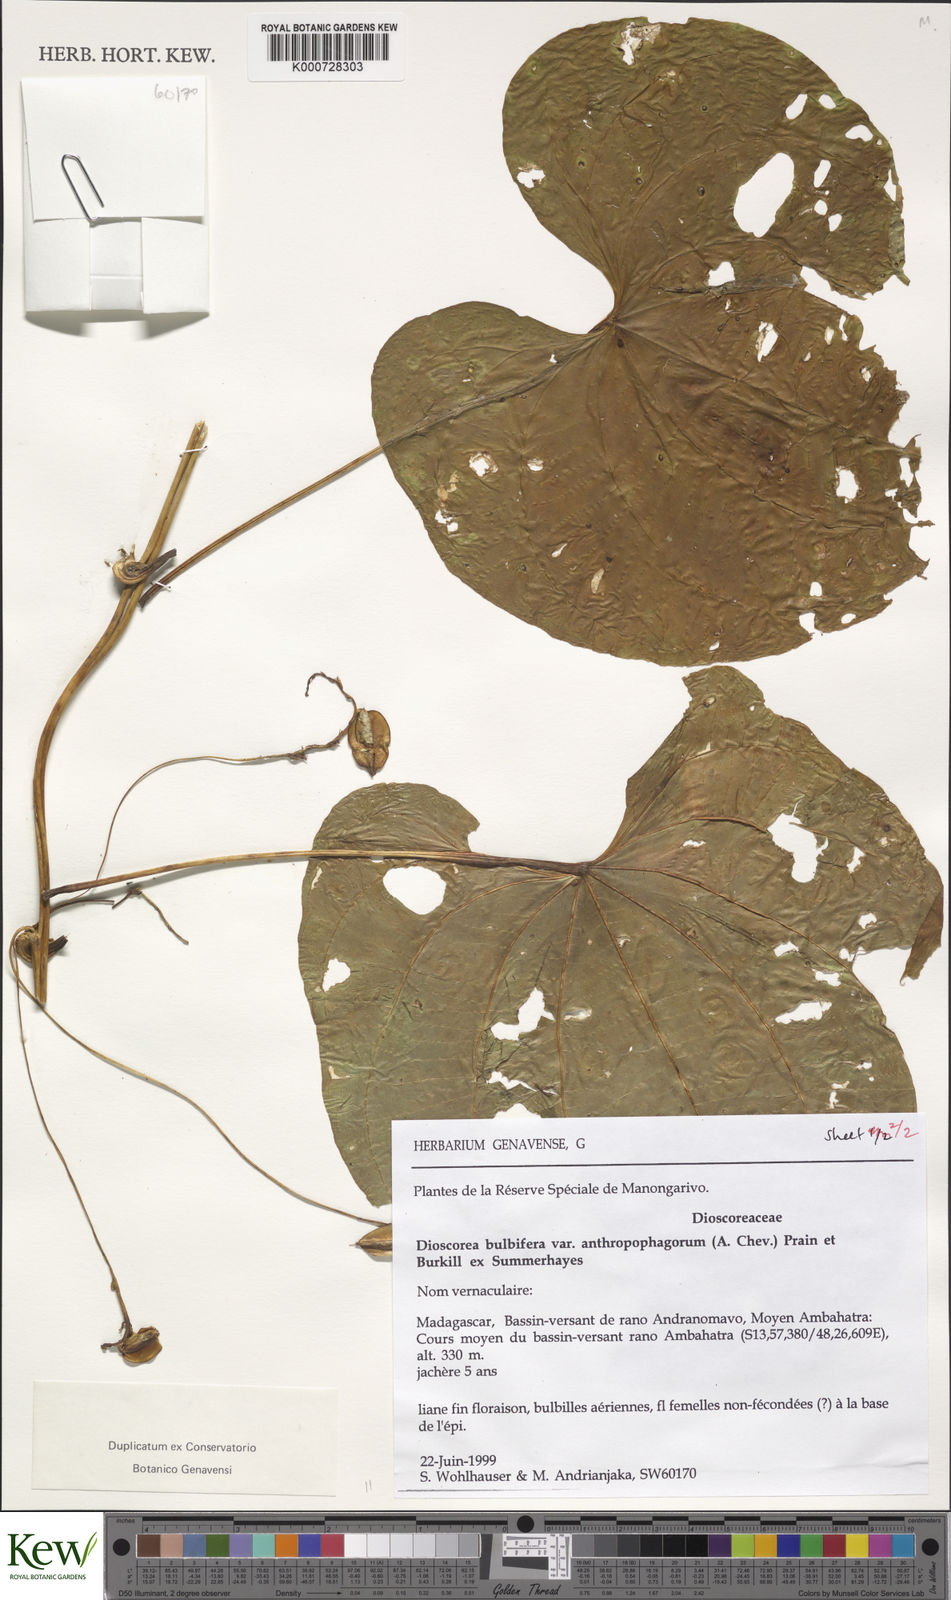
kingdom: Plantae
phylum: Tracheophyta
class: Liliopsida
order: Dioscoreales
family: Dioscoreaceae
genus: Dioscorea
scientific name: Dioscorea bulbifera
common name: Air yam
